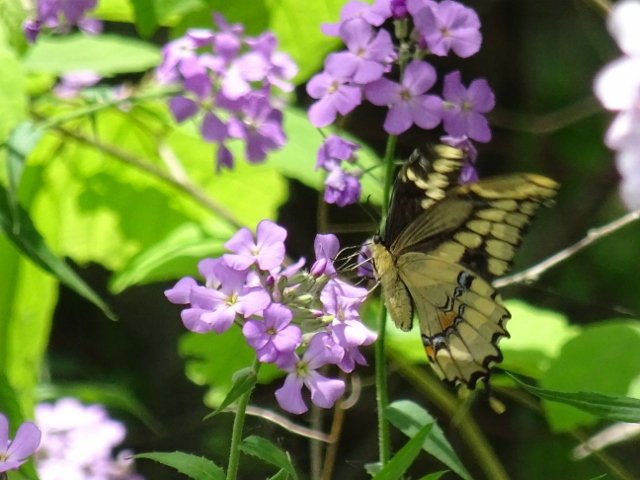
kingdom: Animalia
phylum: Arthropoda
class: Insecta
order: Lepidoptera
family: Papilionidae
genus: Papilio
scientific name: Papilio cresphontes
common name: Eastern Giant Swallowtail
